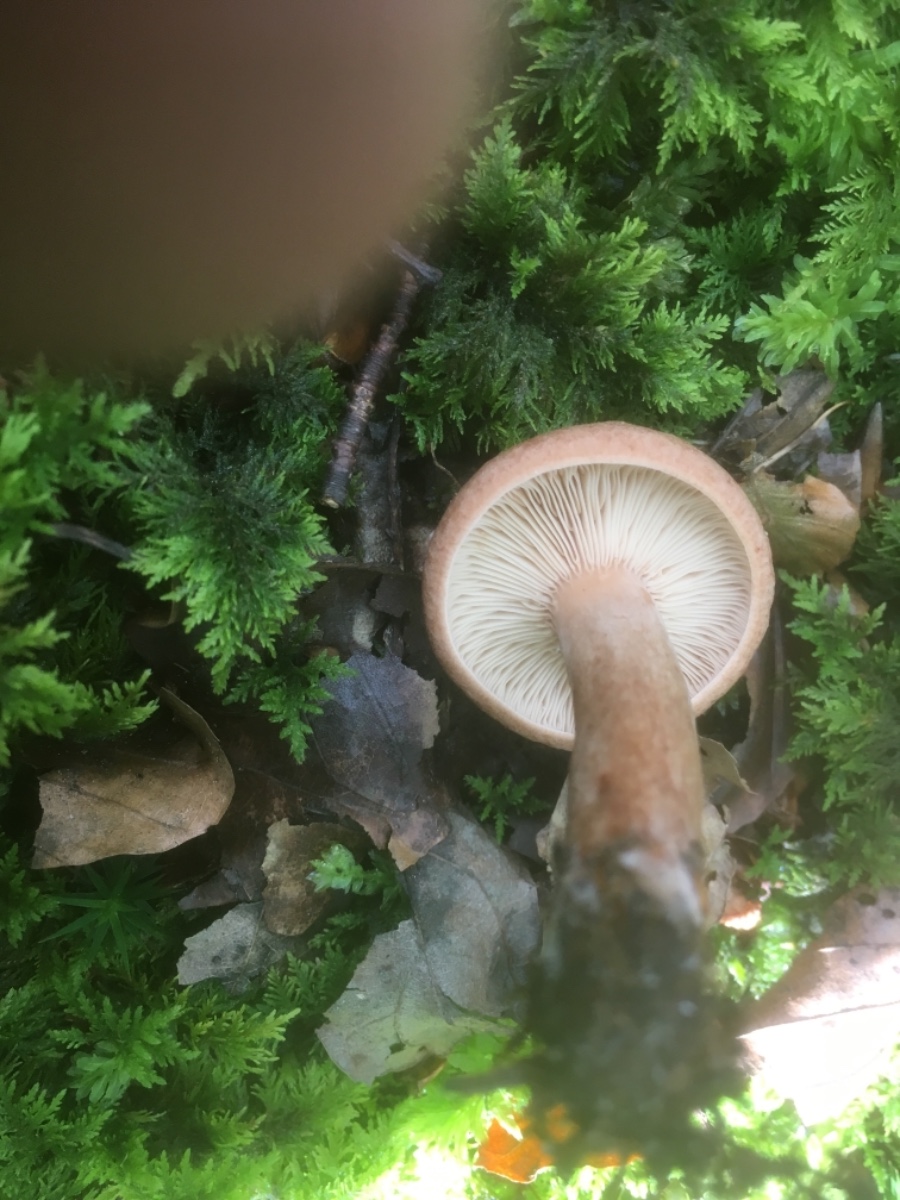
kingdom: Fungi
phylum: Basidiomycota
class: Agaricomycetes
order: Russulales
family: Russulaceae
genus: Lactarius
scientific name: Lactarius
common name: mælkehat
